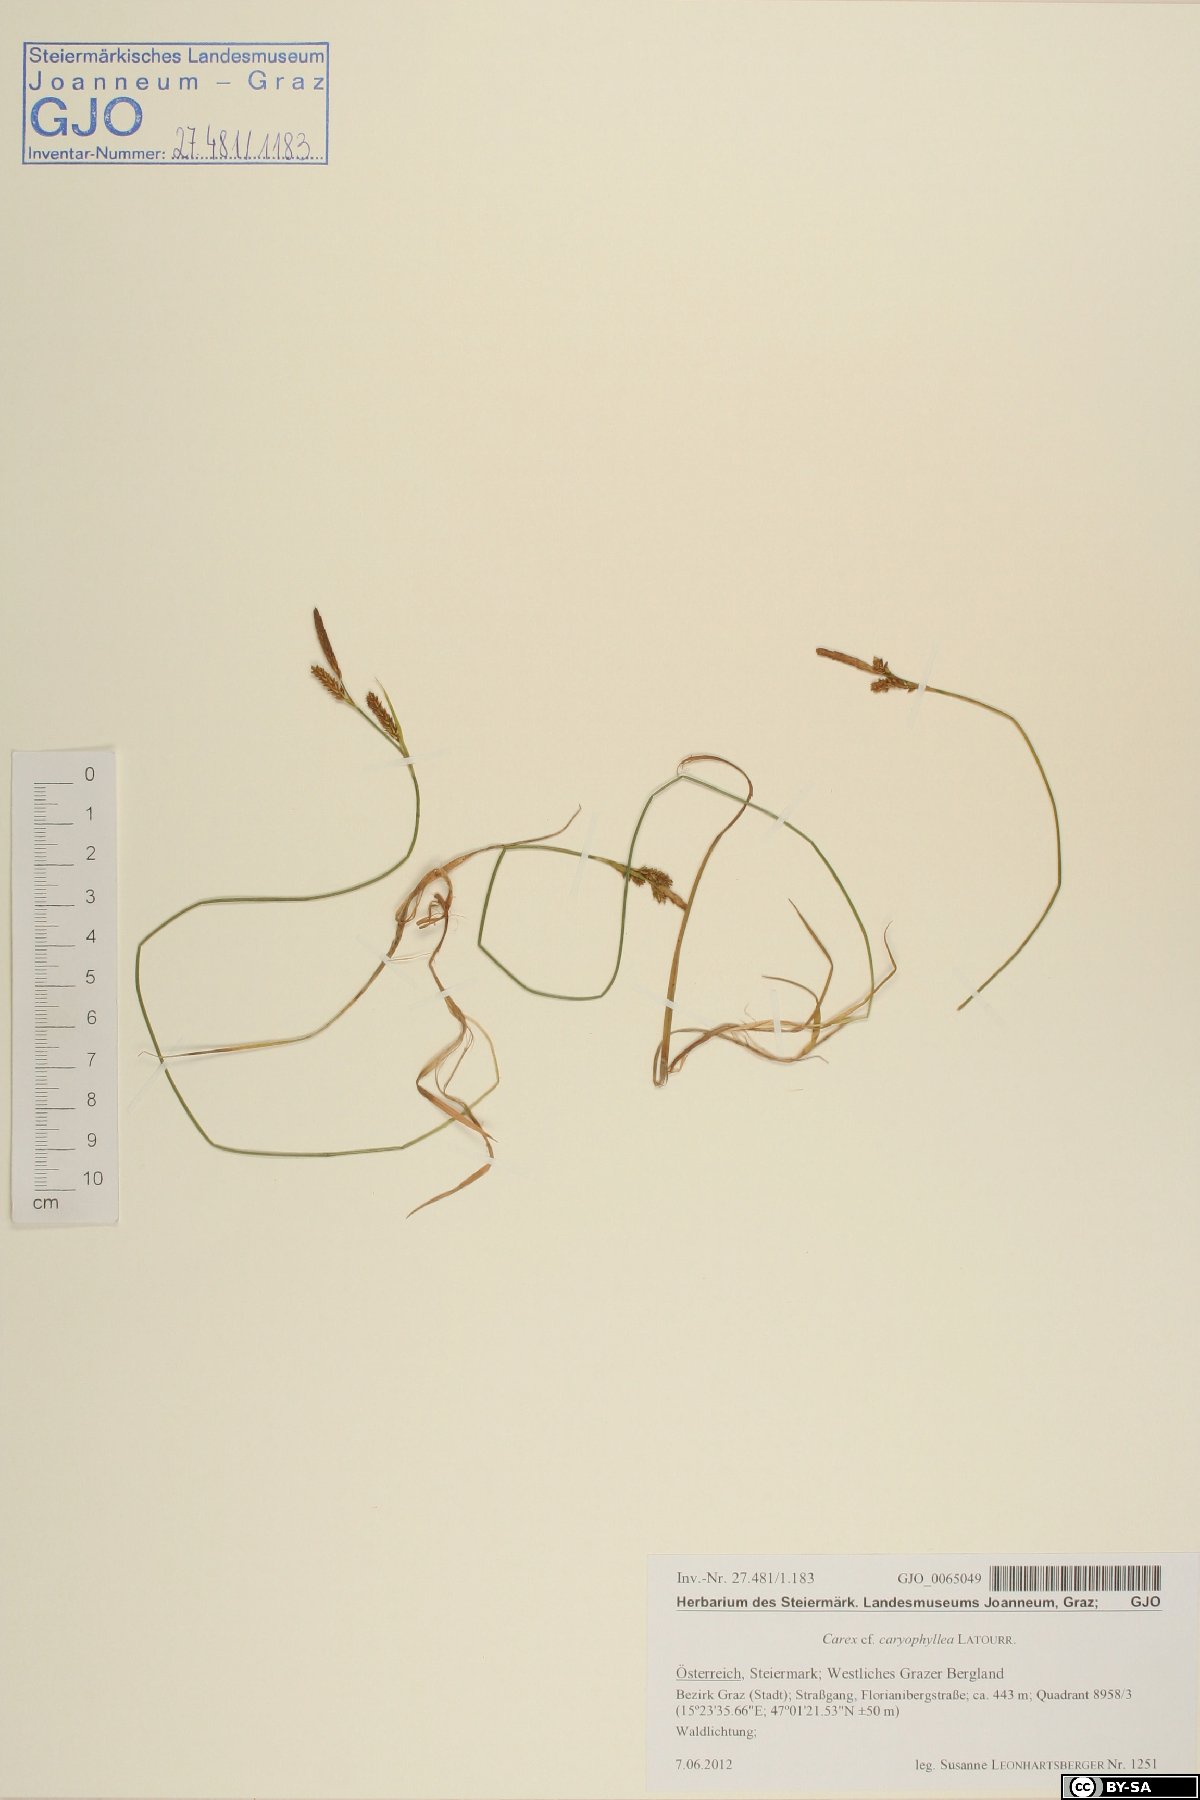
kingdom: Plantae
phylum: Tracheophyta
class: Liliopsida
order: Poales
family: Cyperaceae
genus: Carex
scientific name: Carex caryophyllea
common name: Spring sedge
